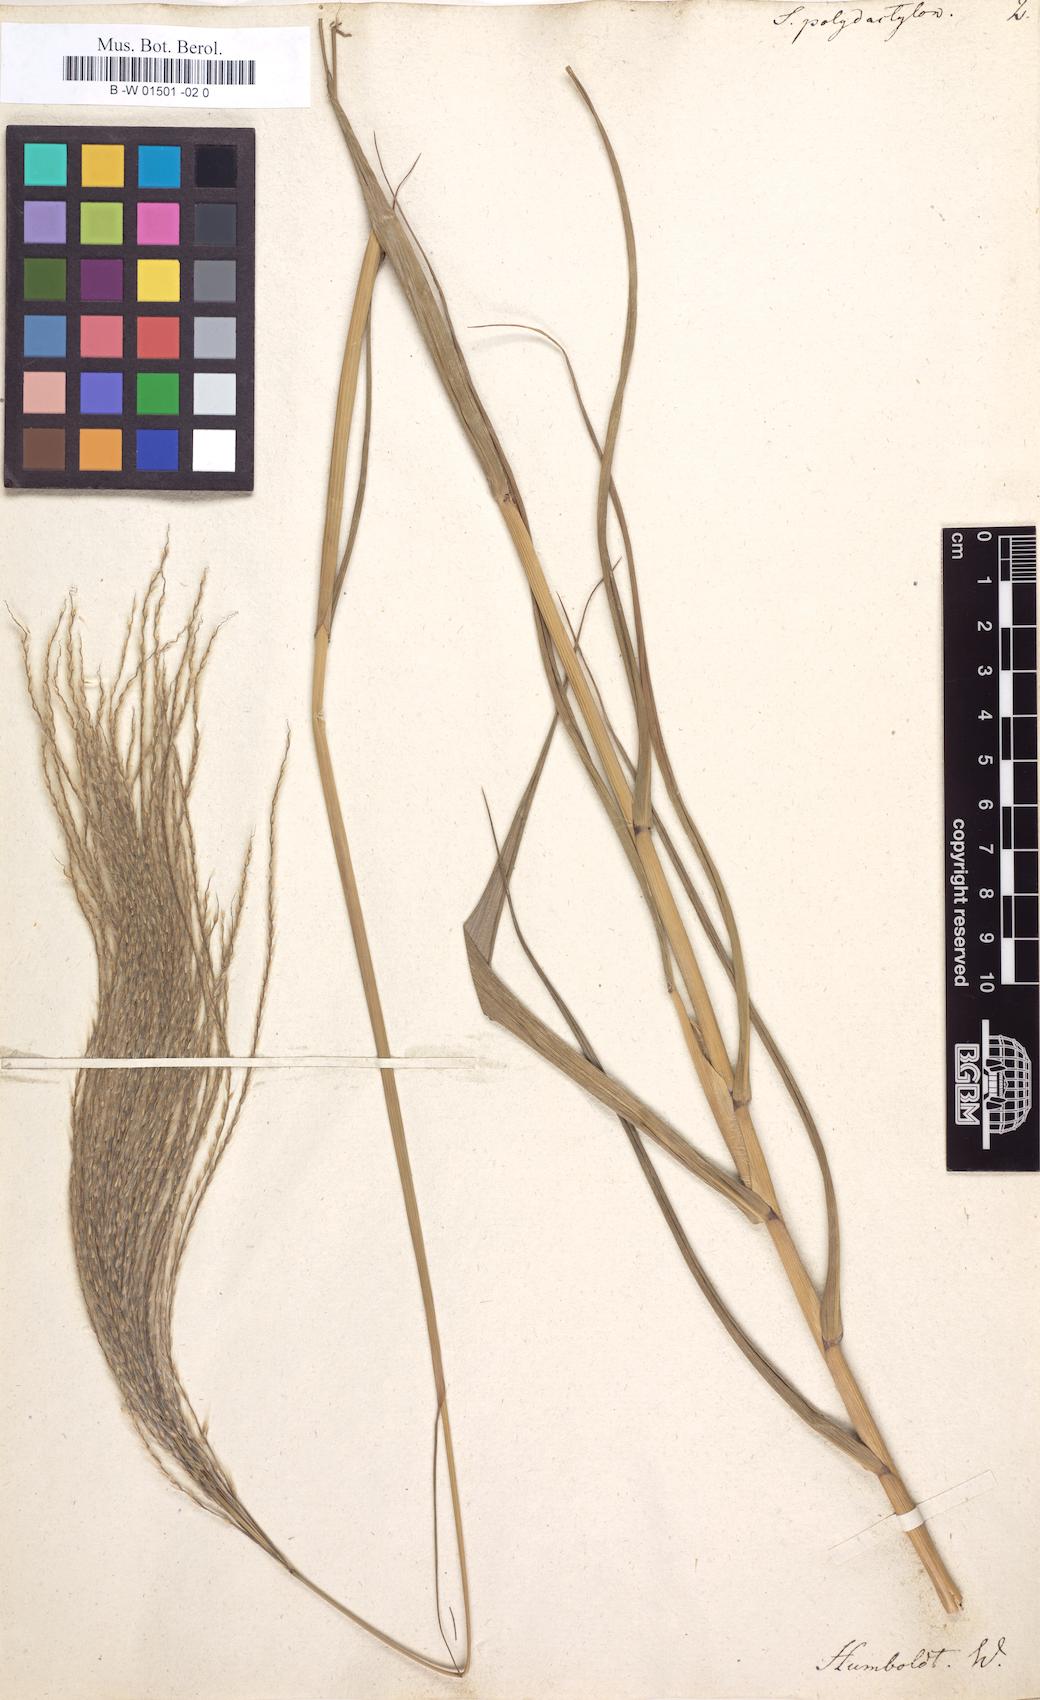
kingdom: Plantae
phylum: Tracheophyta
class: Liliopsida
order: Poales
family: Poaceae
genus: Stapfochloa
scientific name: Stapfochloa elata
